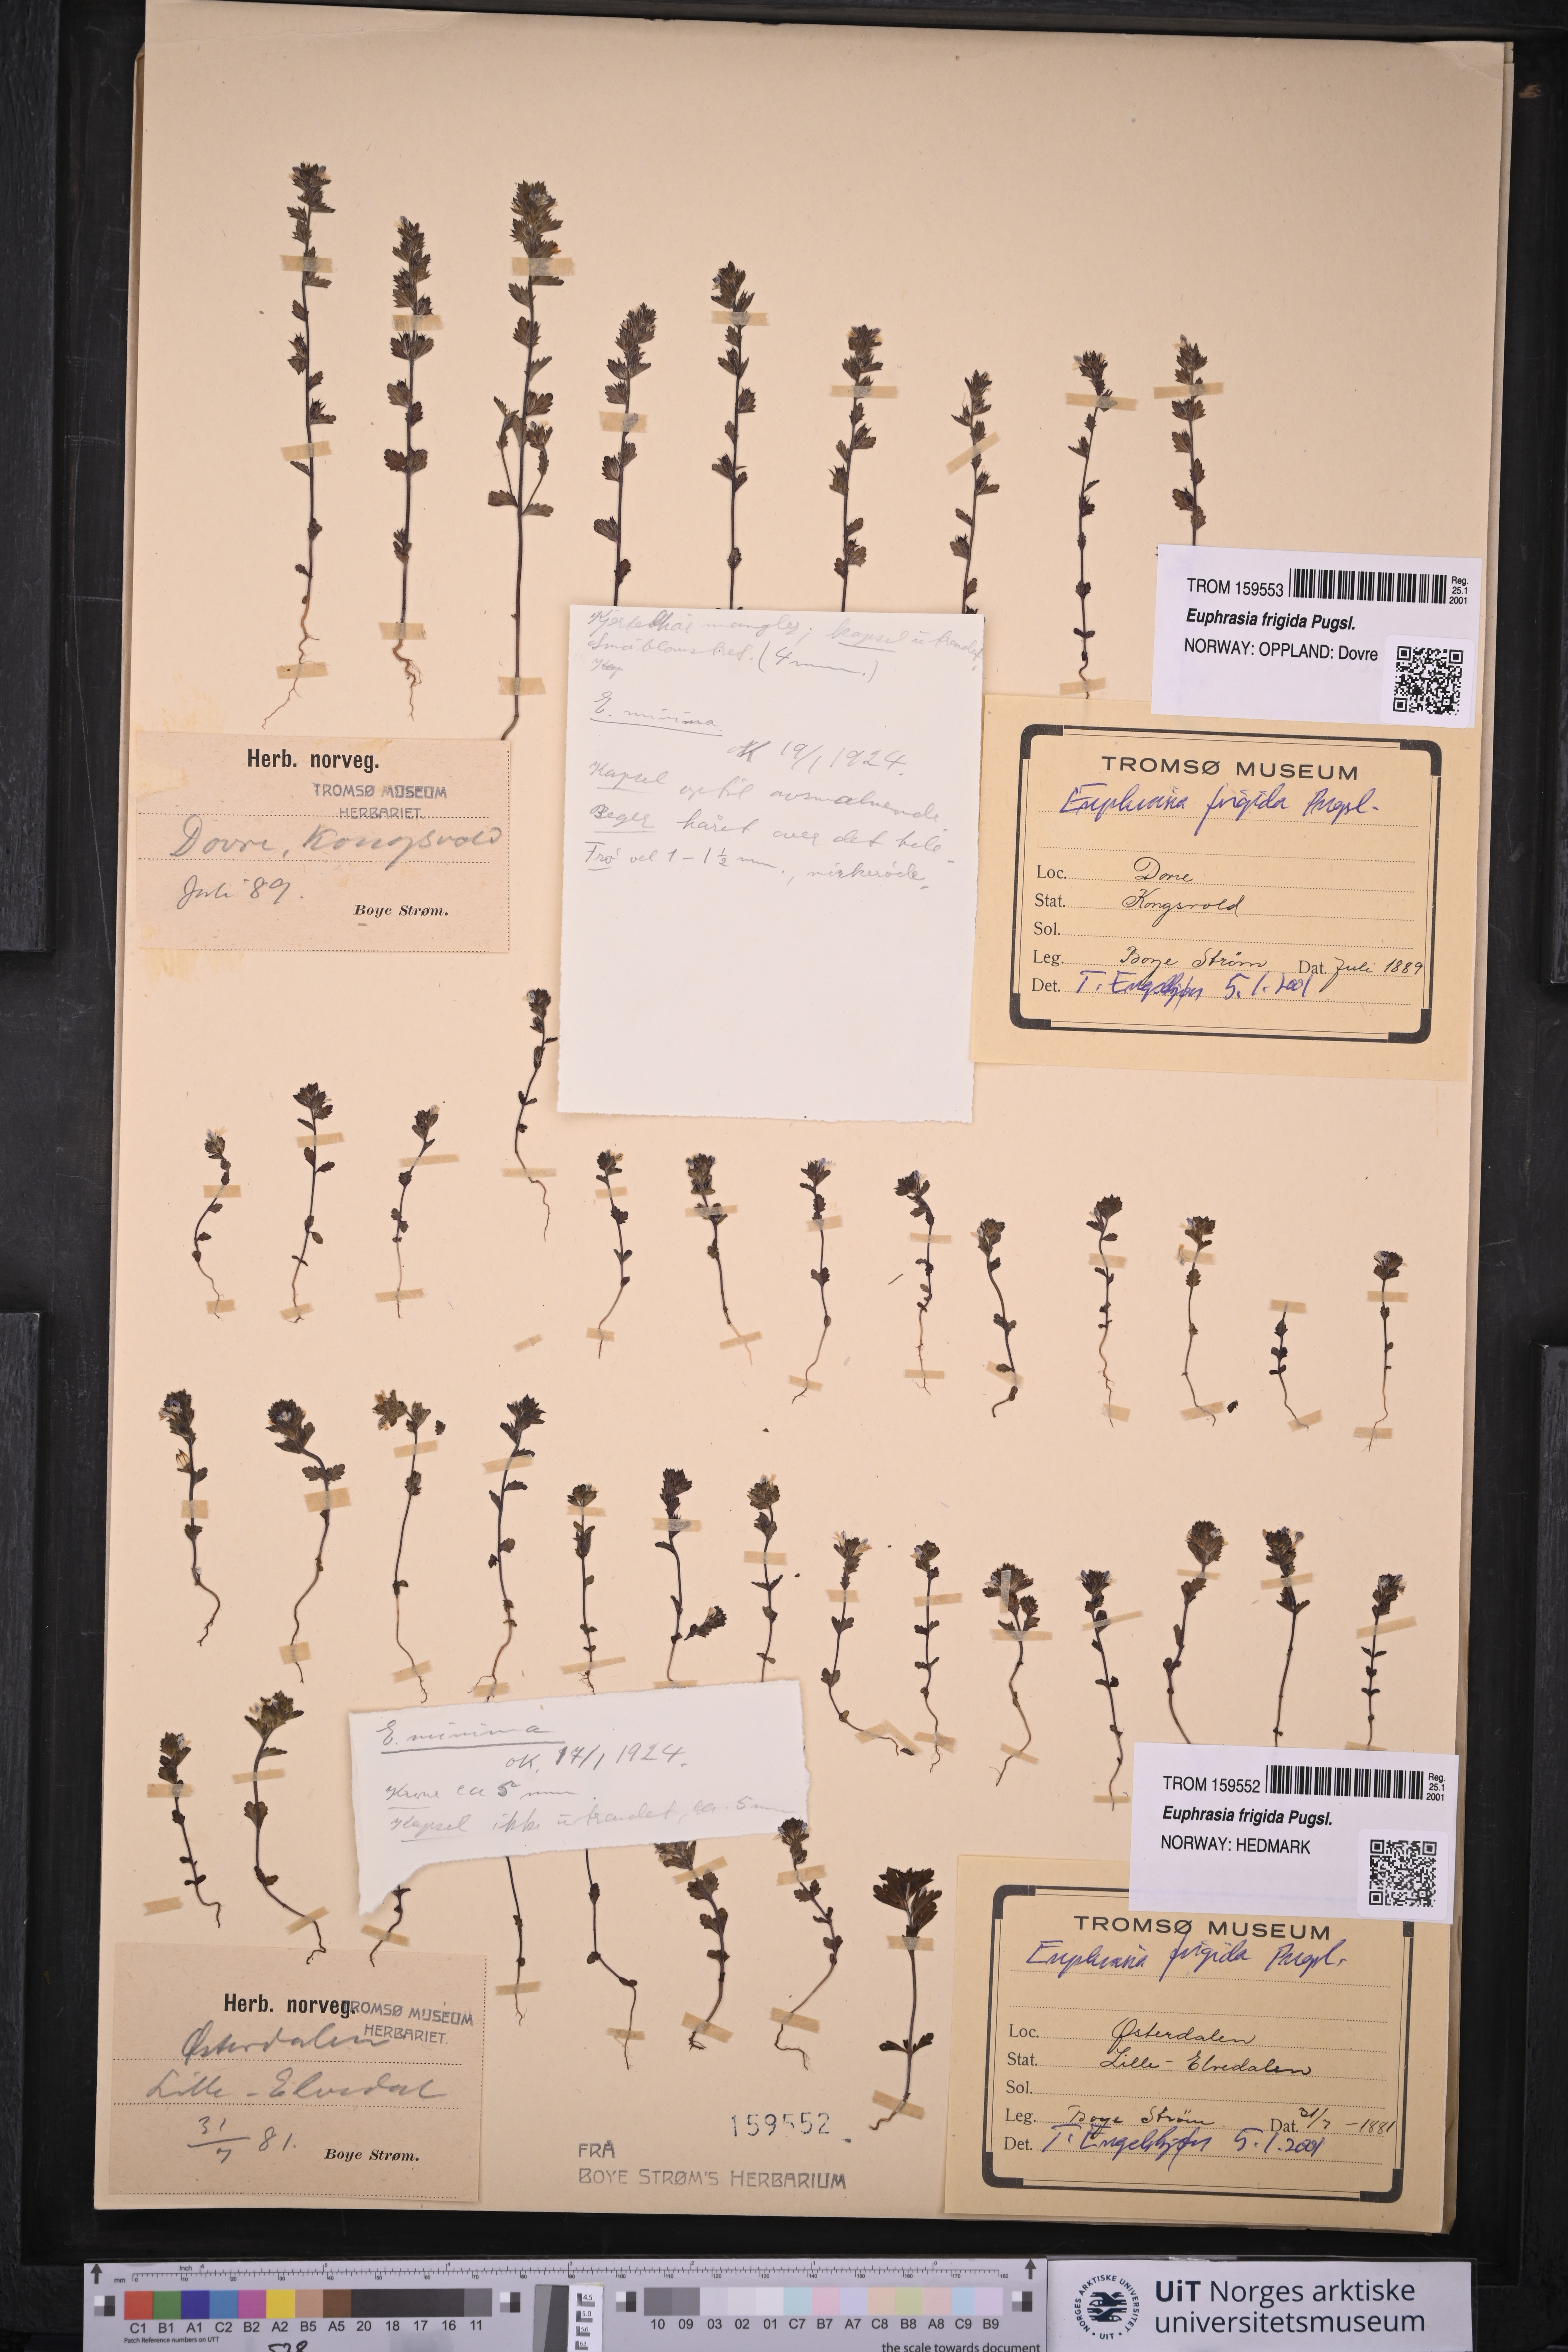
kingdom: Plantae
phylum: Tracheophyta
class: Magnoliopsida
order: Lamiales
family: Orobanchaceae
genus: Euphrasia
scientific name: Euphrasia frigida
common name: An eyebright
